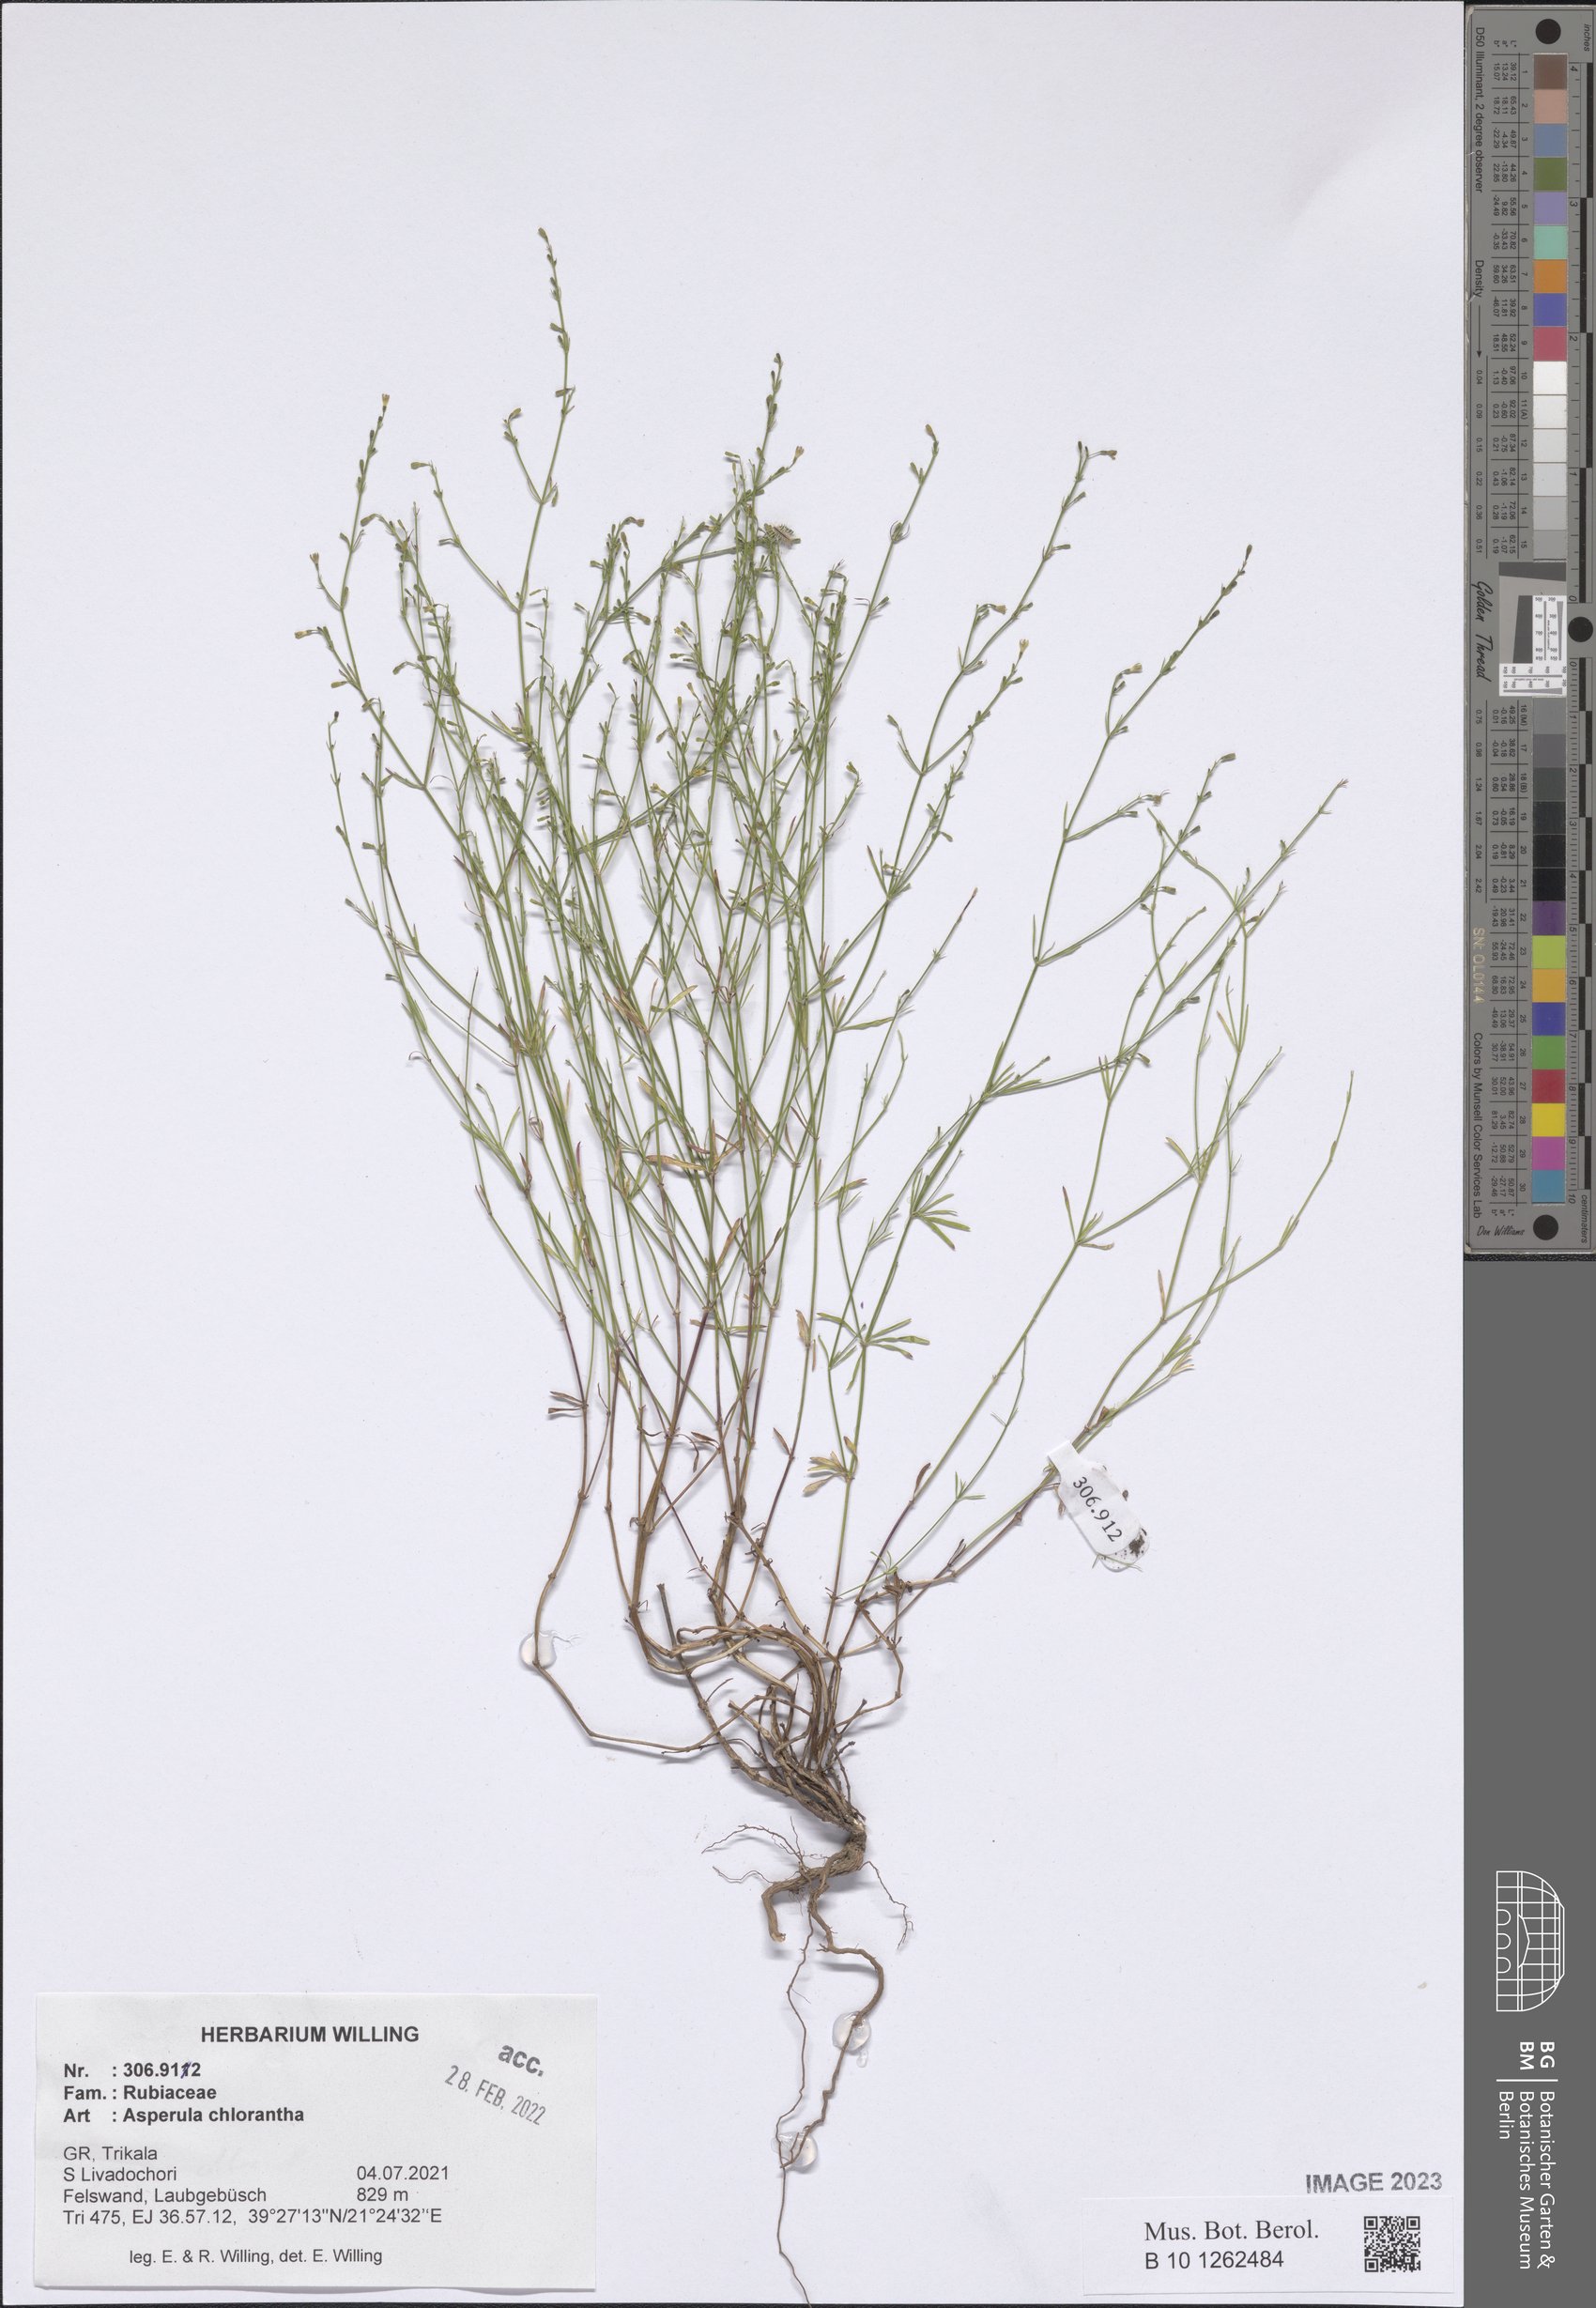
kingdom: Plantae
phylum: Tracheophyta
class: Magnoliopsida
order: Gentianales
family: Rubiaceae
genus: Thliphthisa
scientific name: Thliphthisa chlorantha
